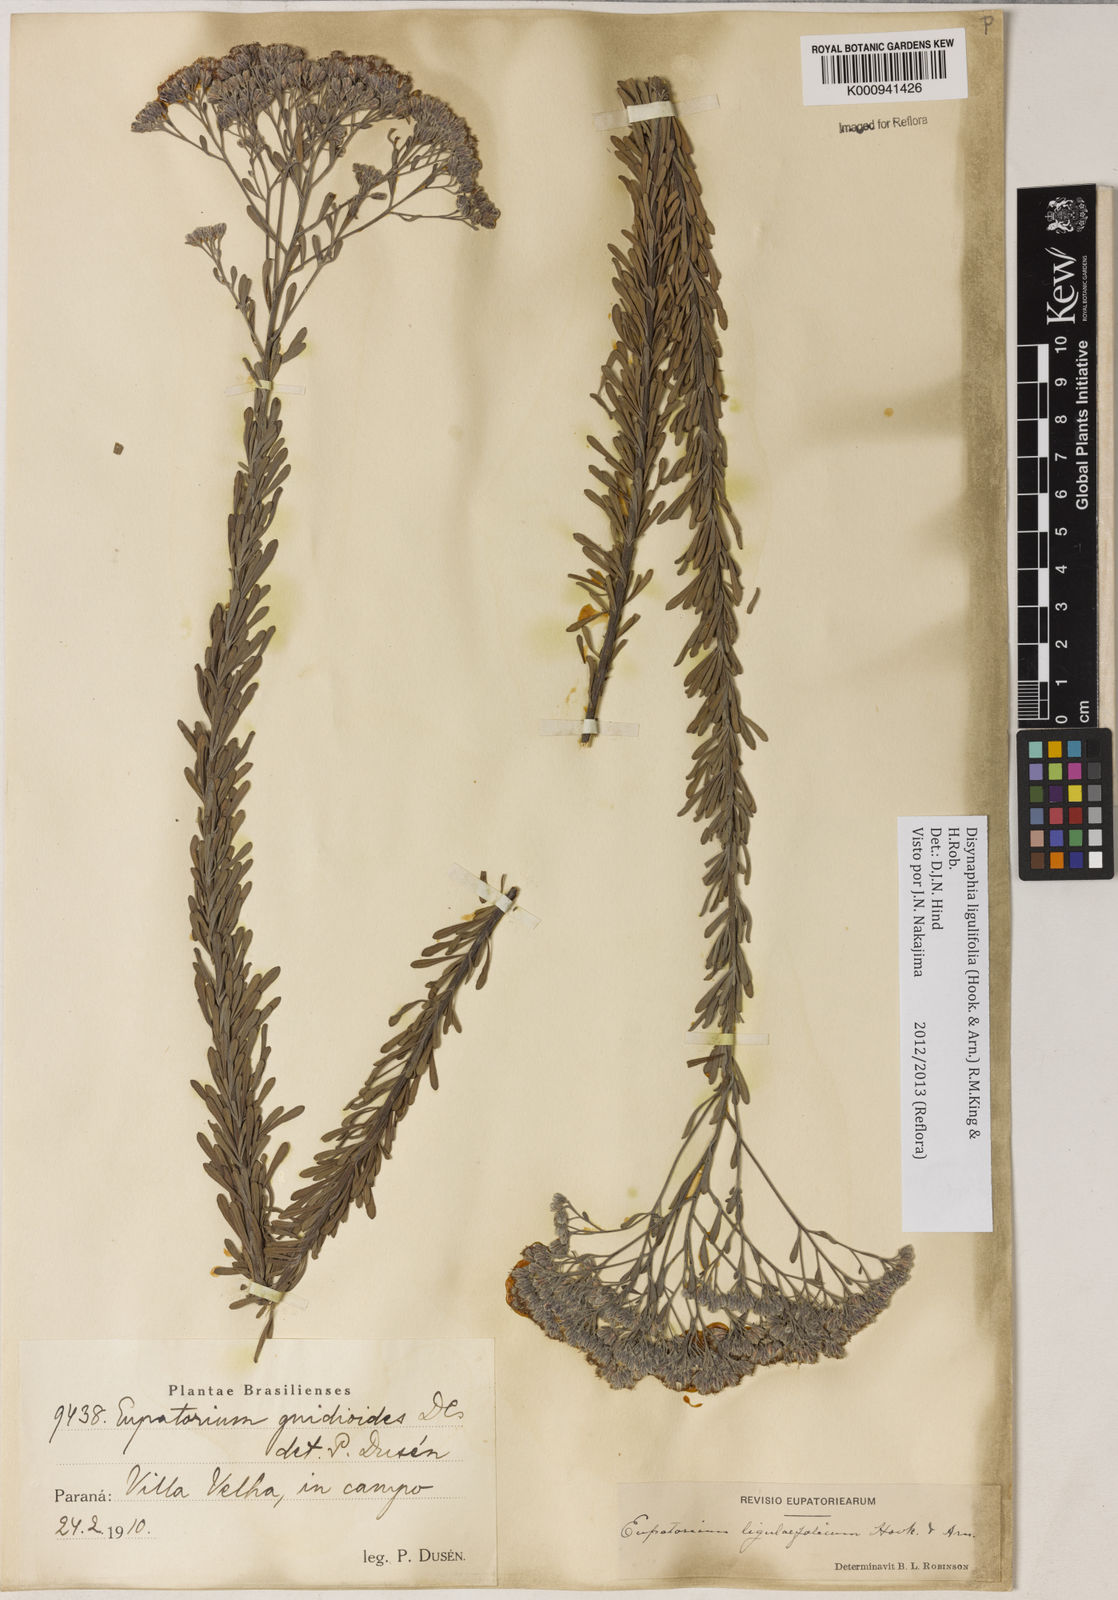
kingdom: Plantae
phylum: Tracheophyta
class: Magnoliopsida
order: Asterales
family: Asteraceae
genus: Disynaphia
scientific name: Disynaphia ligulifolia
